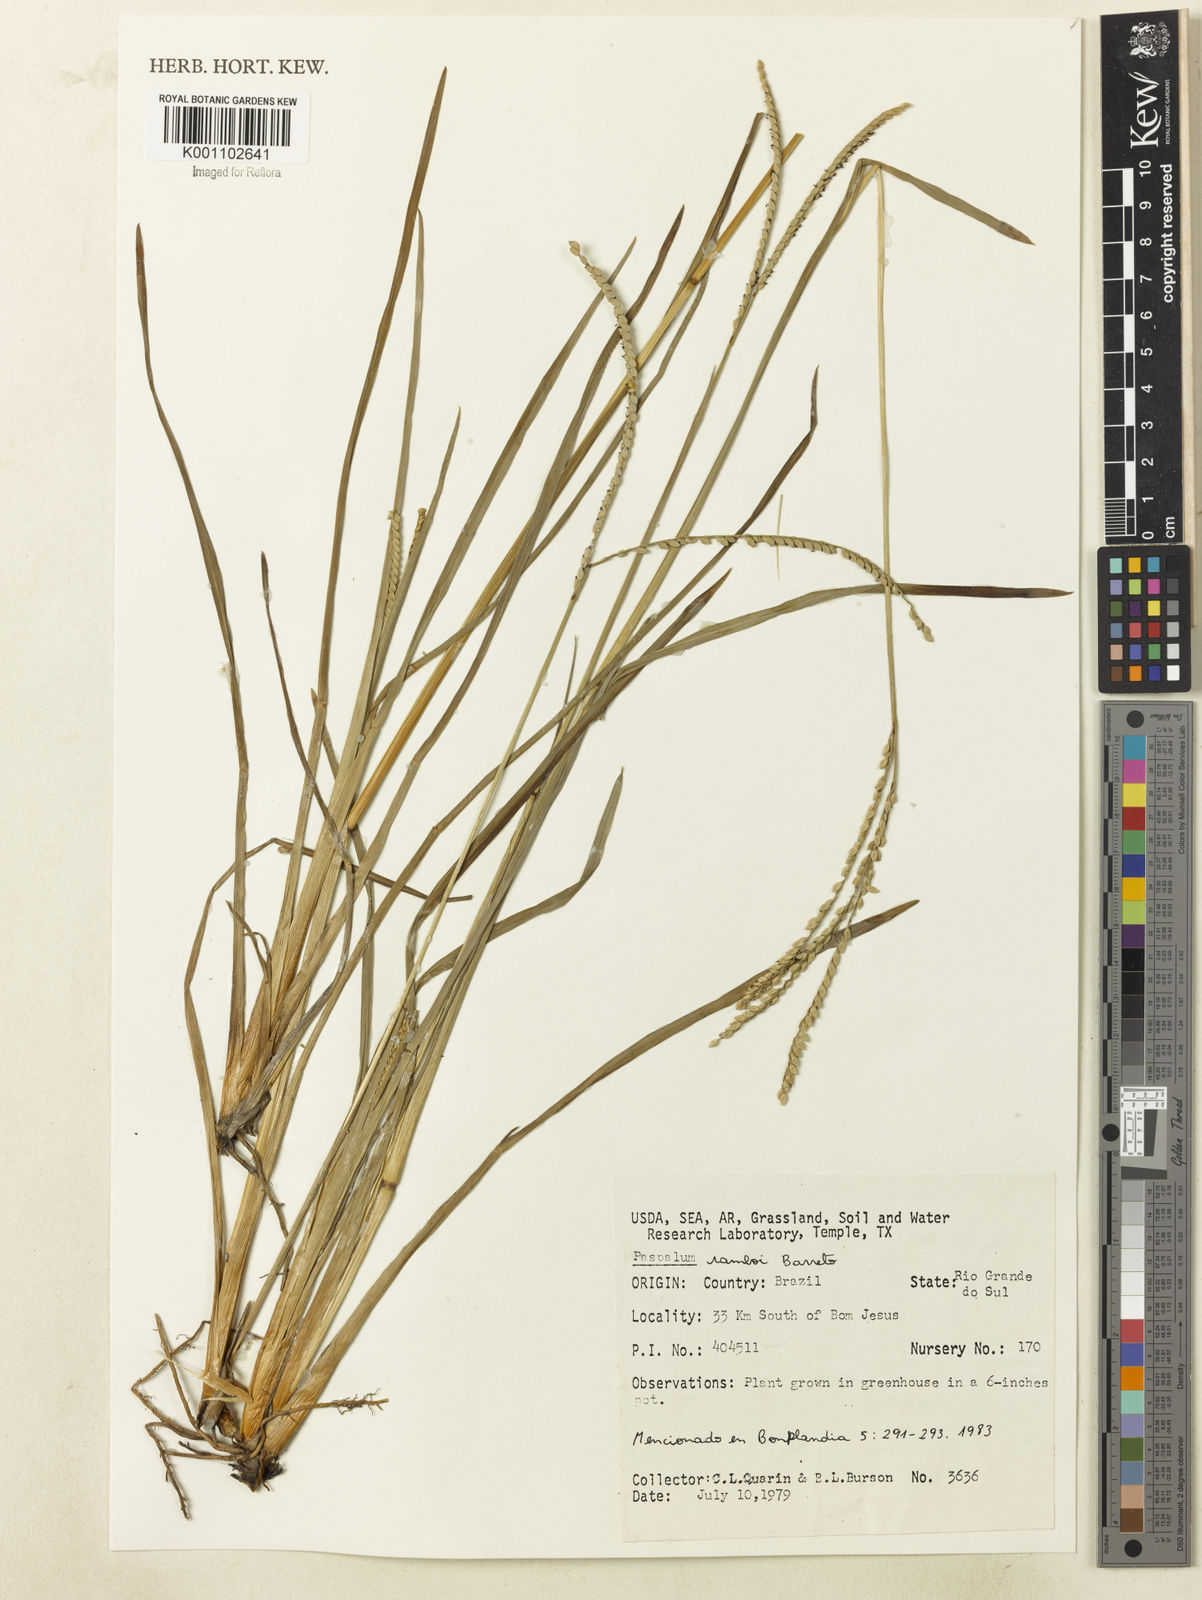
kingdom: Plantae
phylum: Tracheophyta
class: Liliopsida
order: Poales
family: Poaceae
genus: Paspalum
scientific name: Paspalum ramboi
